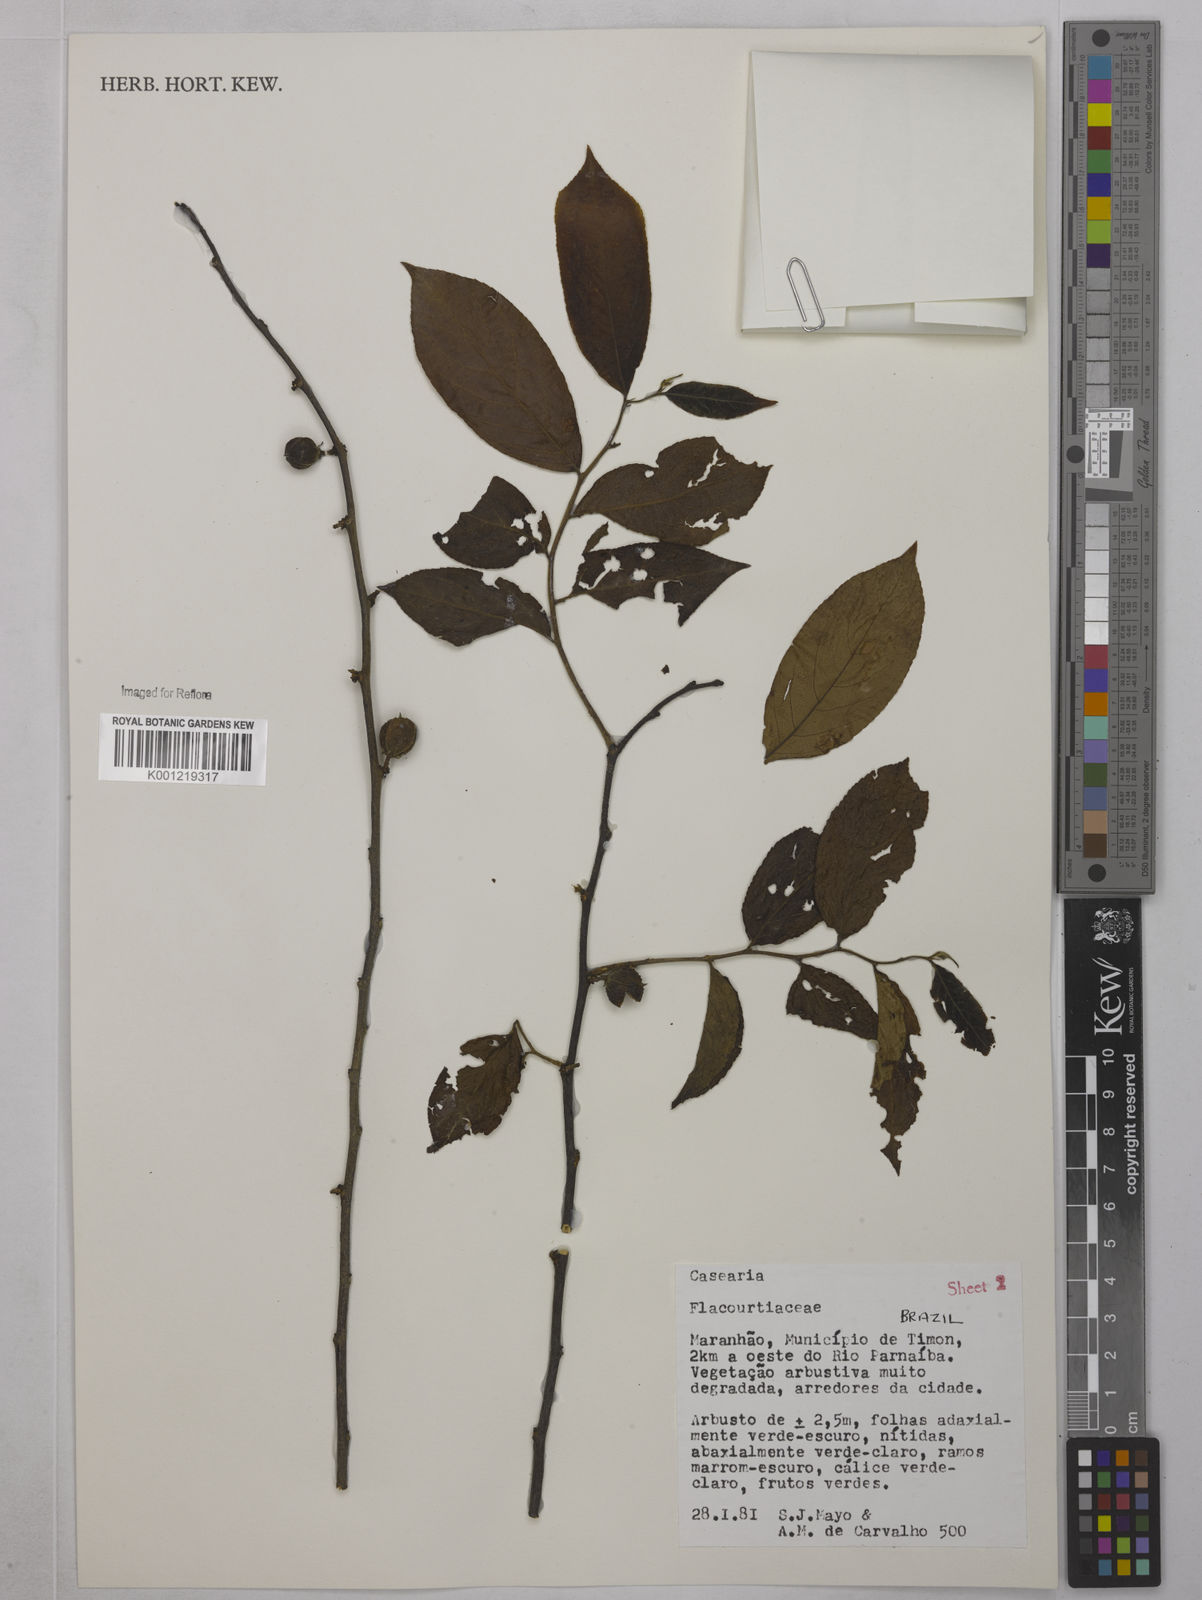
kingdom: Plantae
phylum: Tracheophyta
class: Magnoliopsida
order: Malpighiales
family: Salicaceae
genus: Casearia
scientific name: Casearia
